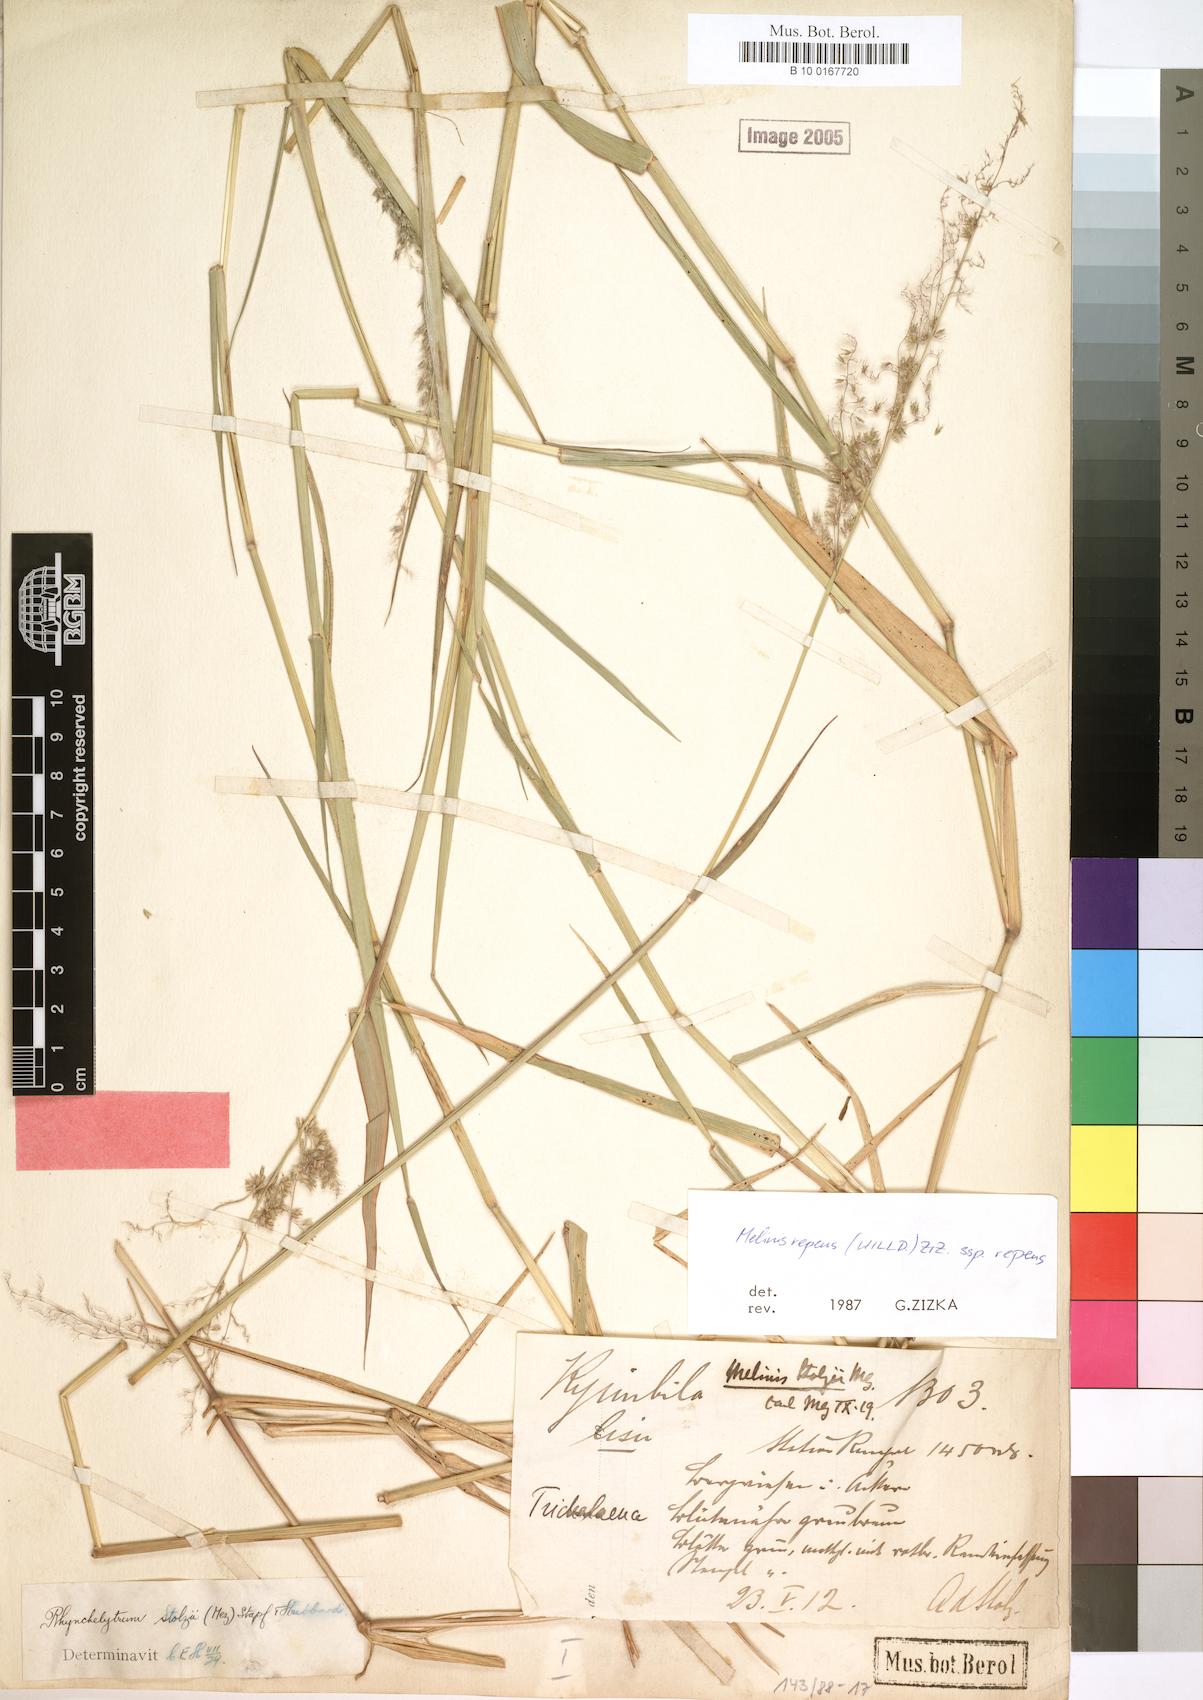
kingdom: Plantae
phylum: Tracheophyta
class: Liliopsida
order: Poales
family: Poaceae
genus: Melinis
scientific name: Melinis repens
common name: Rose natal grass
